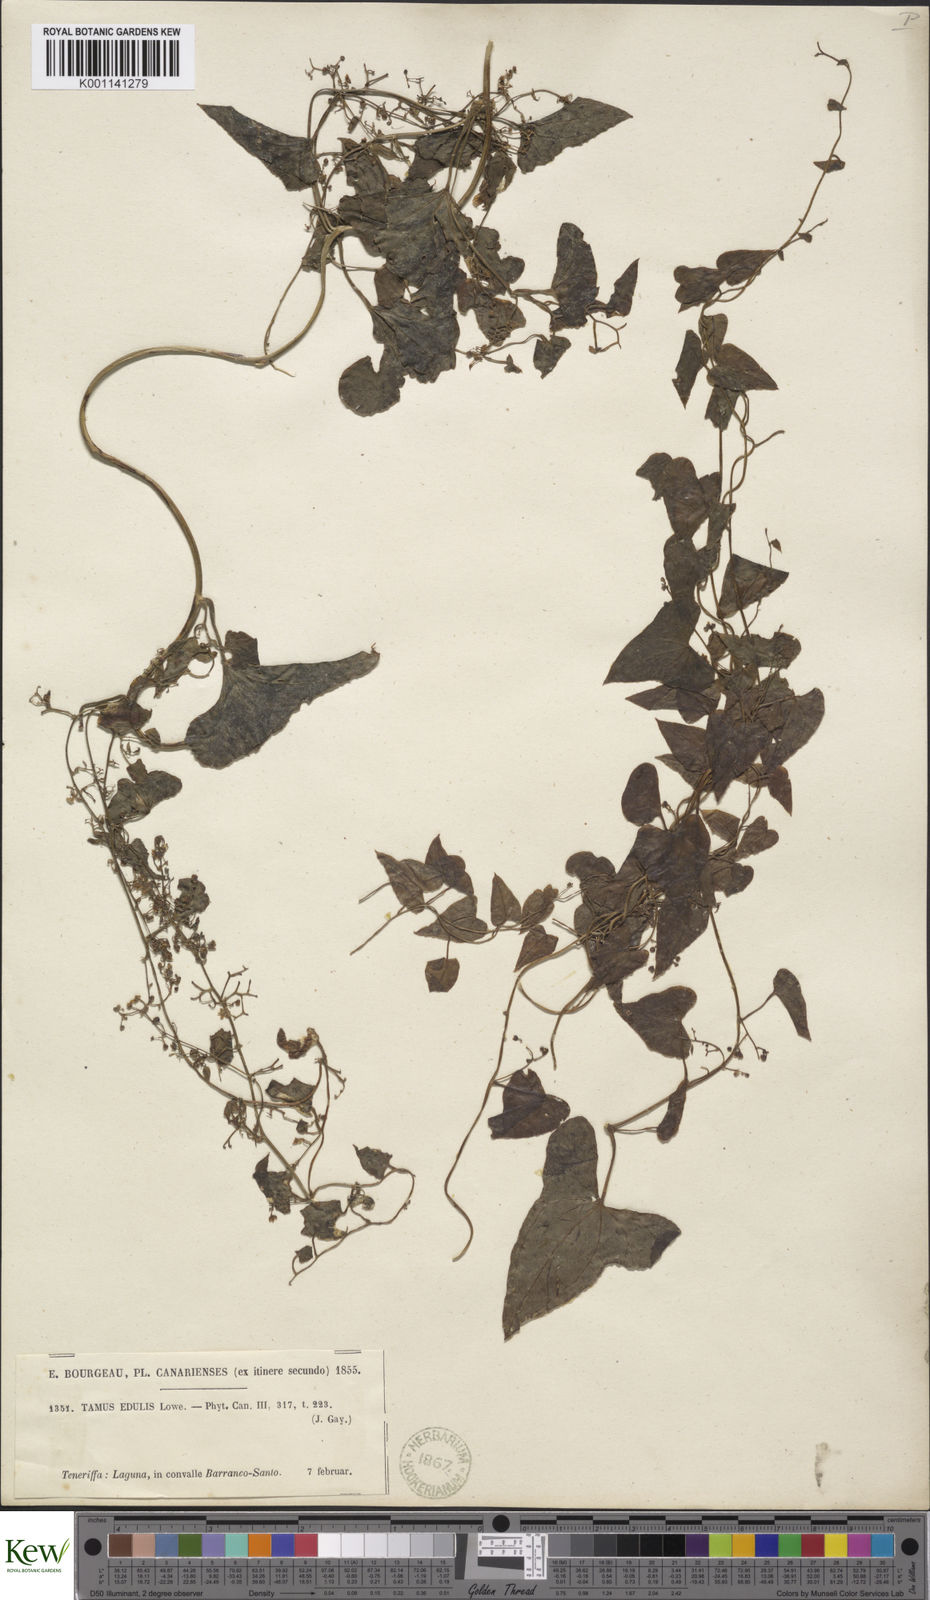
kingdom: Plantae
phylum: Tracheophyta
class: Liliopsida
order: Dioscoreales
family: Dioscoreaceae
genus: Dioscorea
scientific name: Dioscorea
